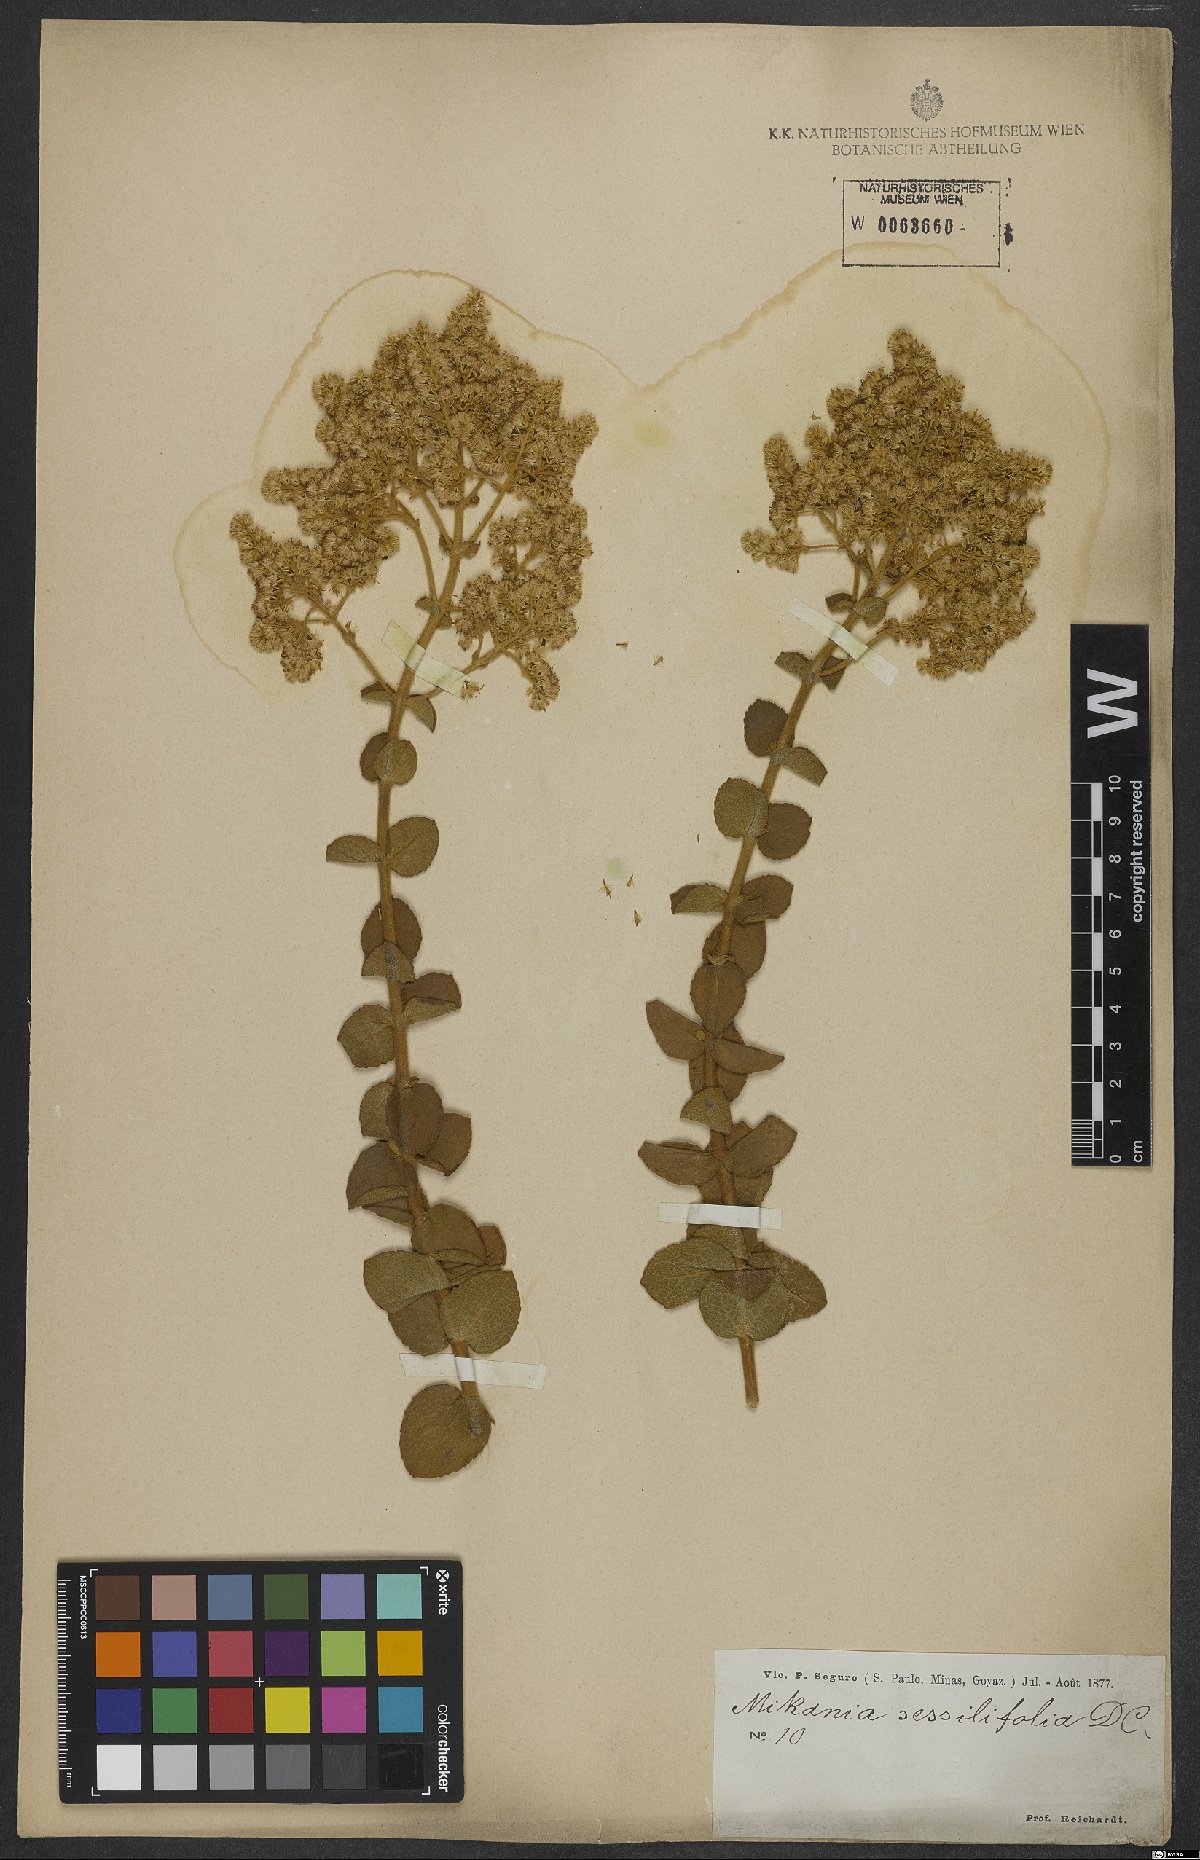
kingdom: Plantae
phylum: Tracheophyta
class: Magnoliopsida
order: Asterales
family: Asteraceae
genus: Mikania
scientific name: Mikania sessilifolia
